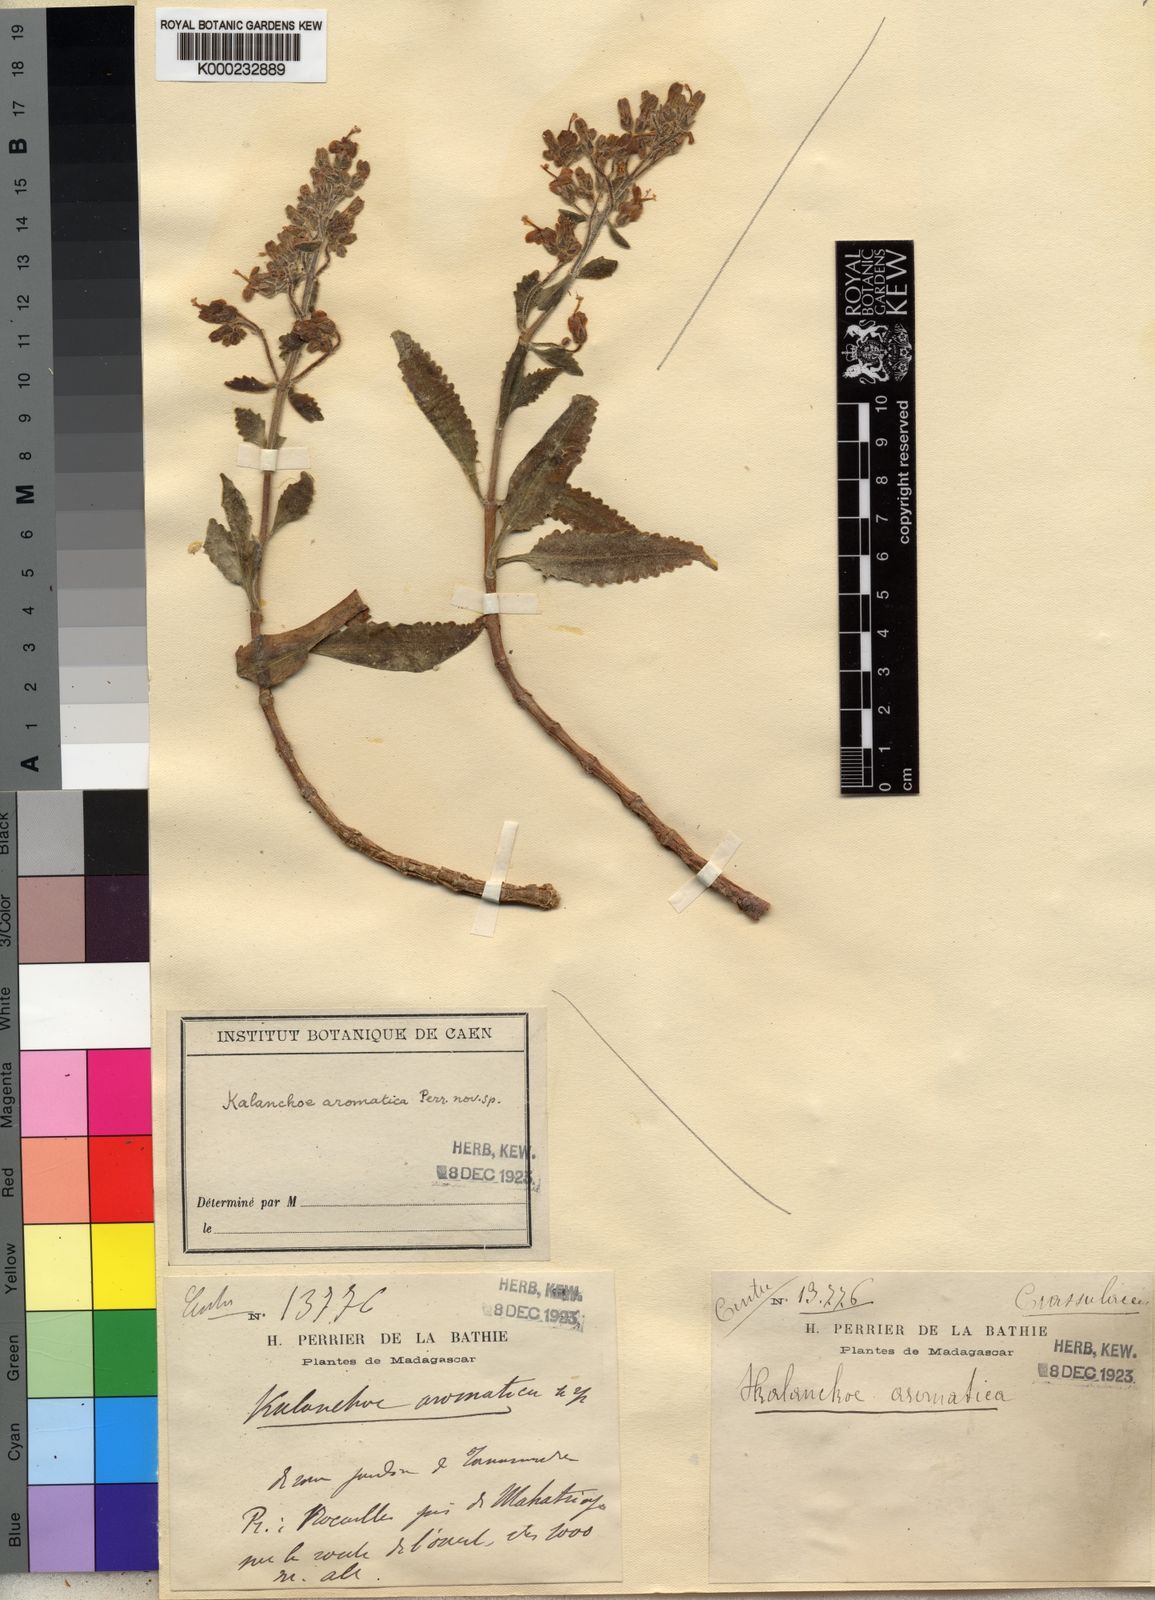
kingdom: Plantae
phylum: Tracheophyta
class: Magnoliopsida
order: Saxifragales
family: Crassulaceae
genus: Kalanchoe
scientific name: Kalanchoe aromatica
